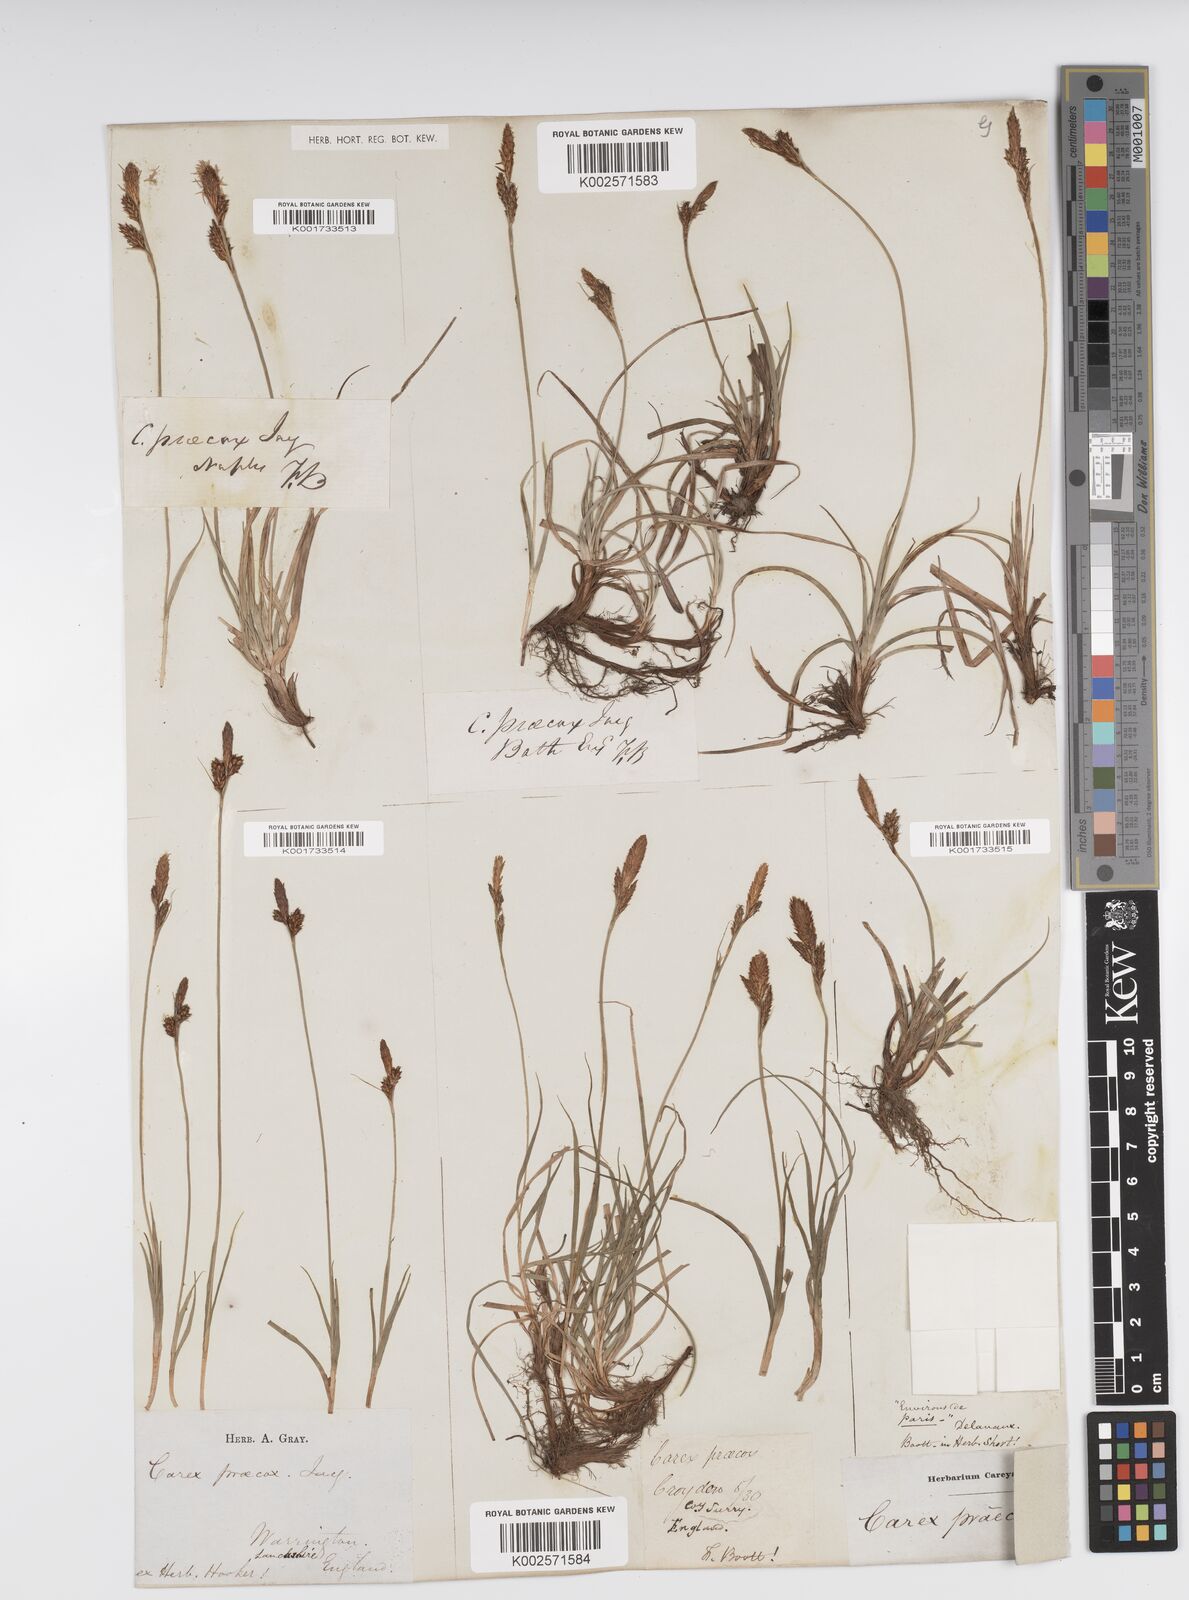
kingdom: Plantae
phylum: Tracheophyta
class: Liliopsida
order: Poales
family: Cyperaceae
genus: Carex
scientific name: Carex caryophyllea
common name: Spring sedge
